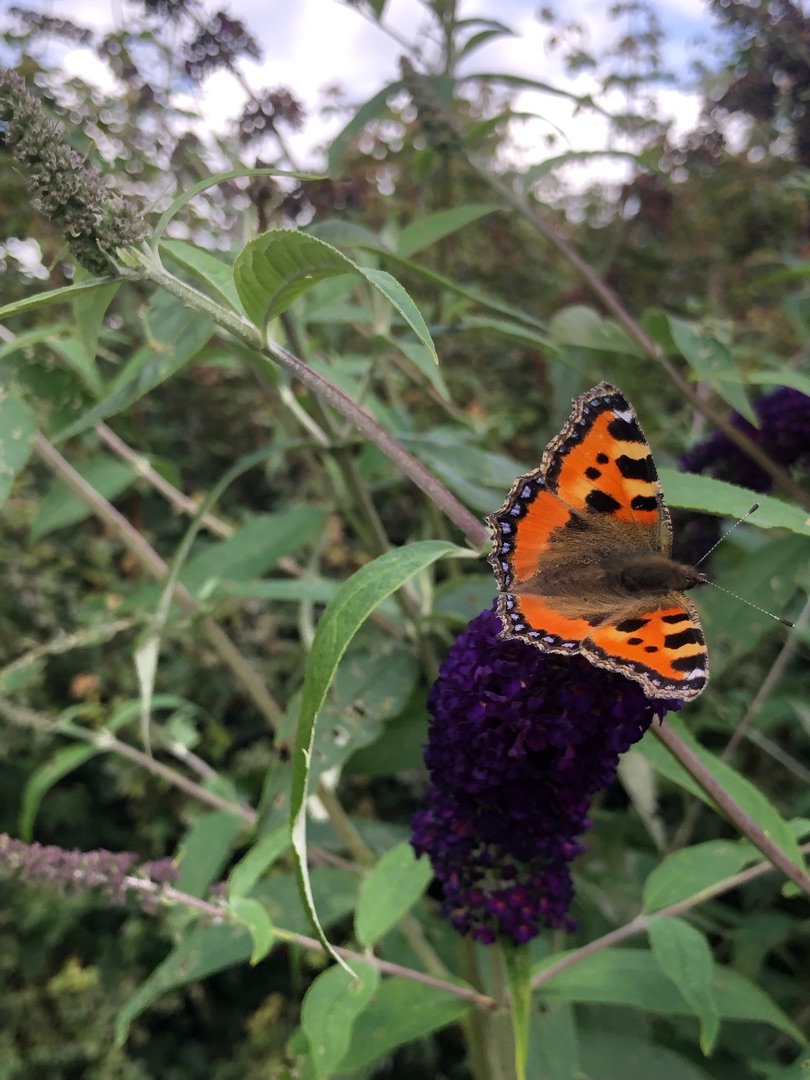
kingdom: Animalia
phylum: Arthropoda
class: Insecta
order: Lepidoptera
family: Nymphalidae
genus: Aglais
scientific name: Aglais urticae
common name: Nældens takvinge
